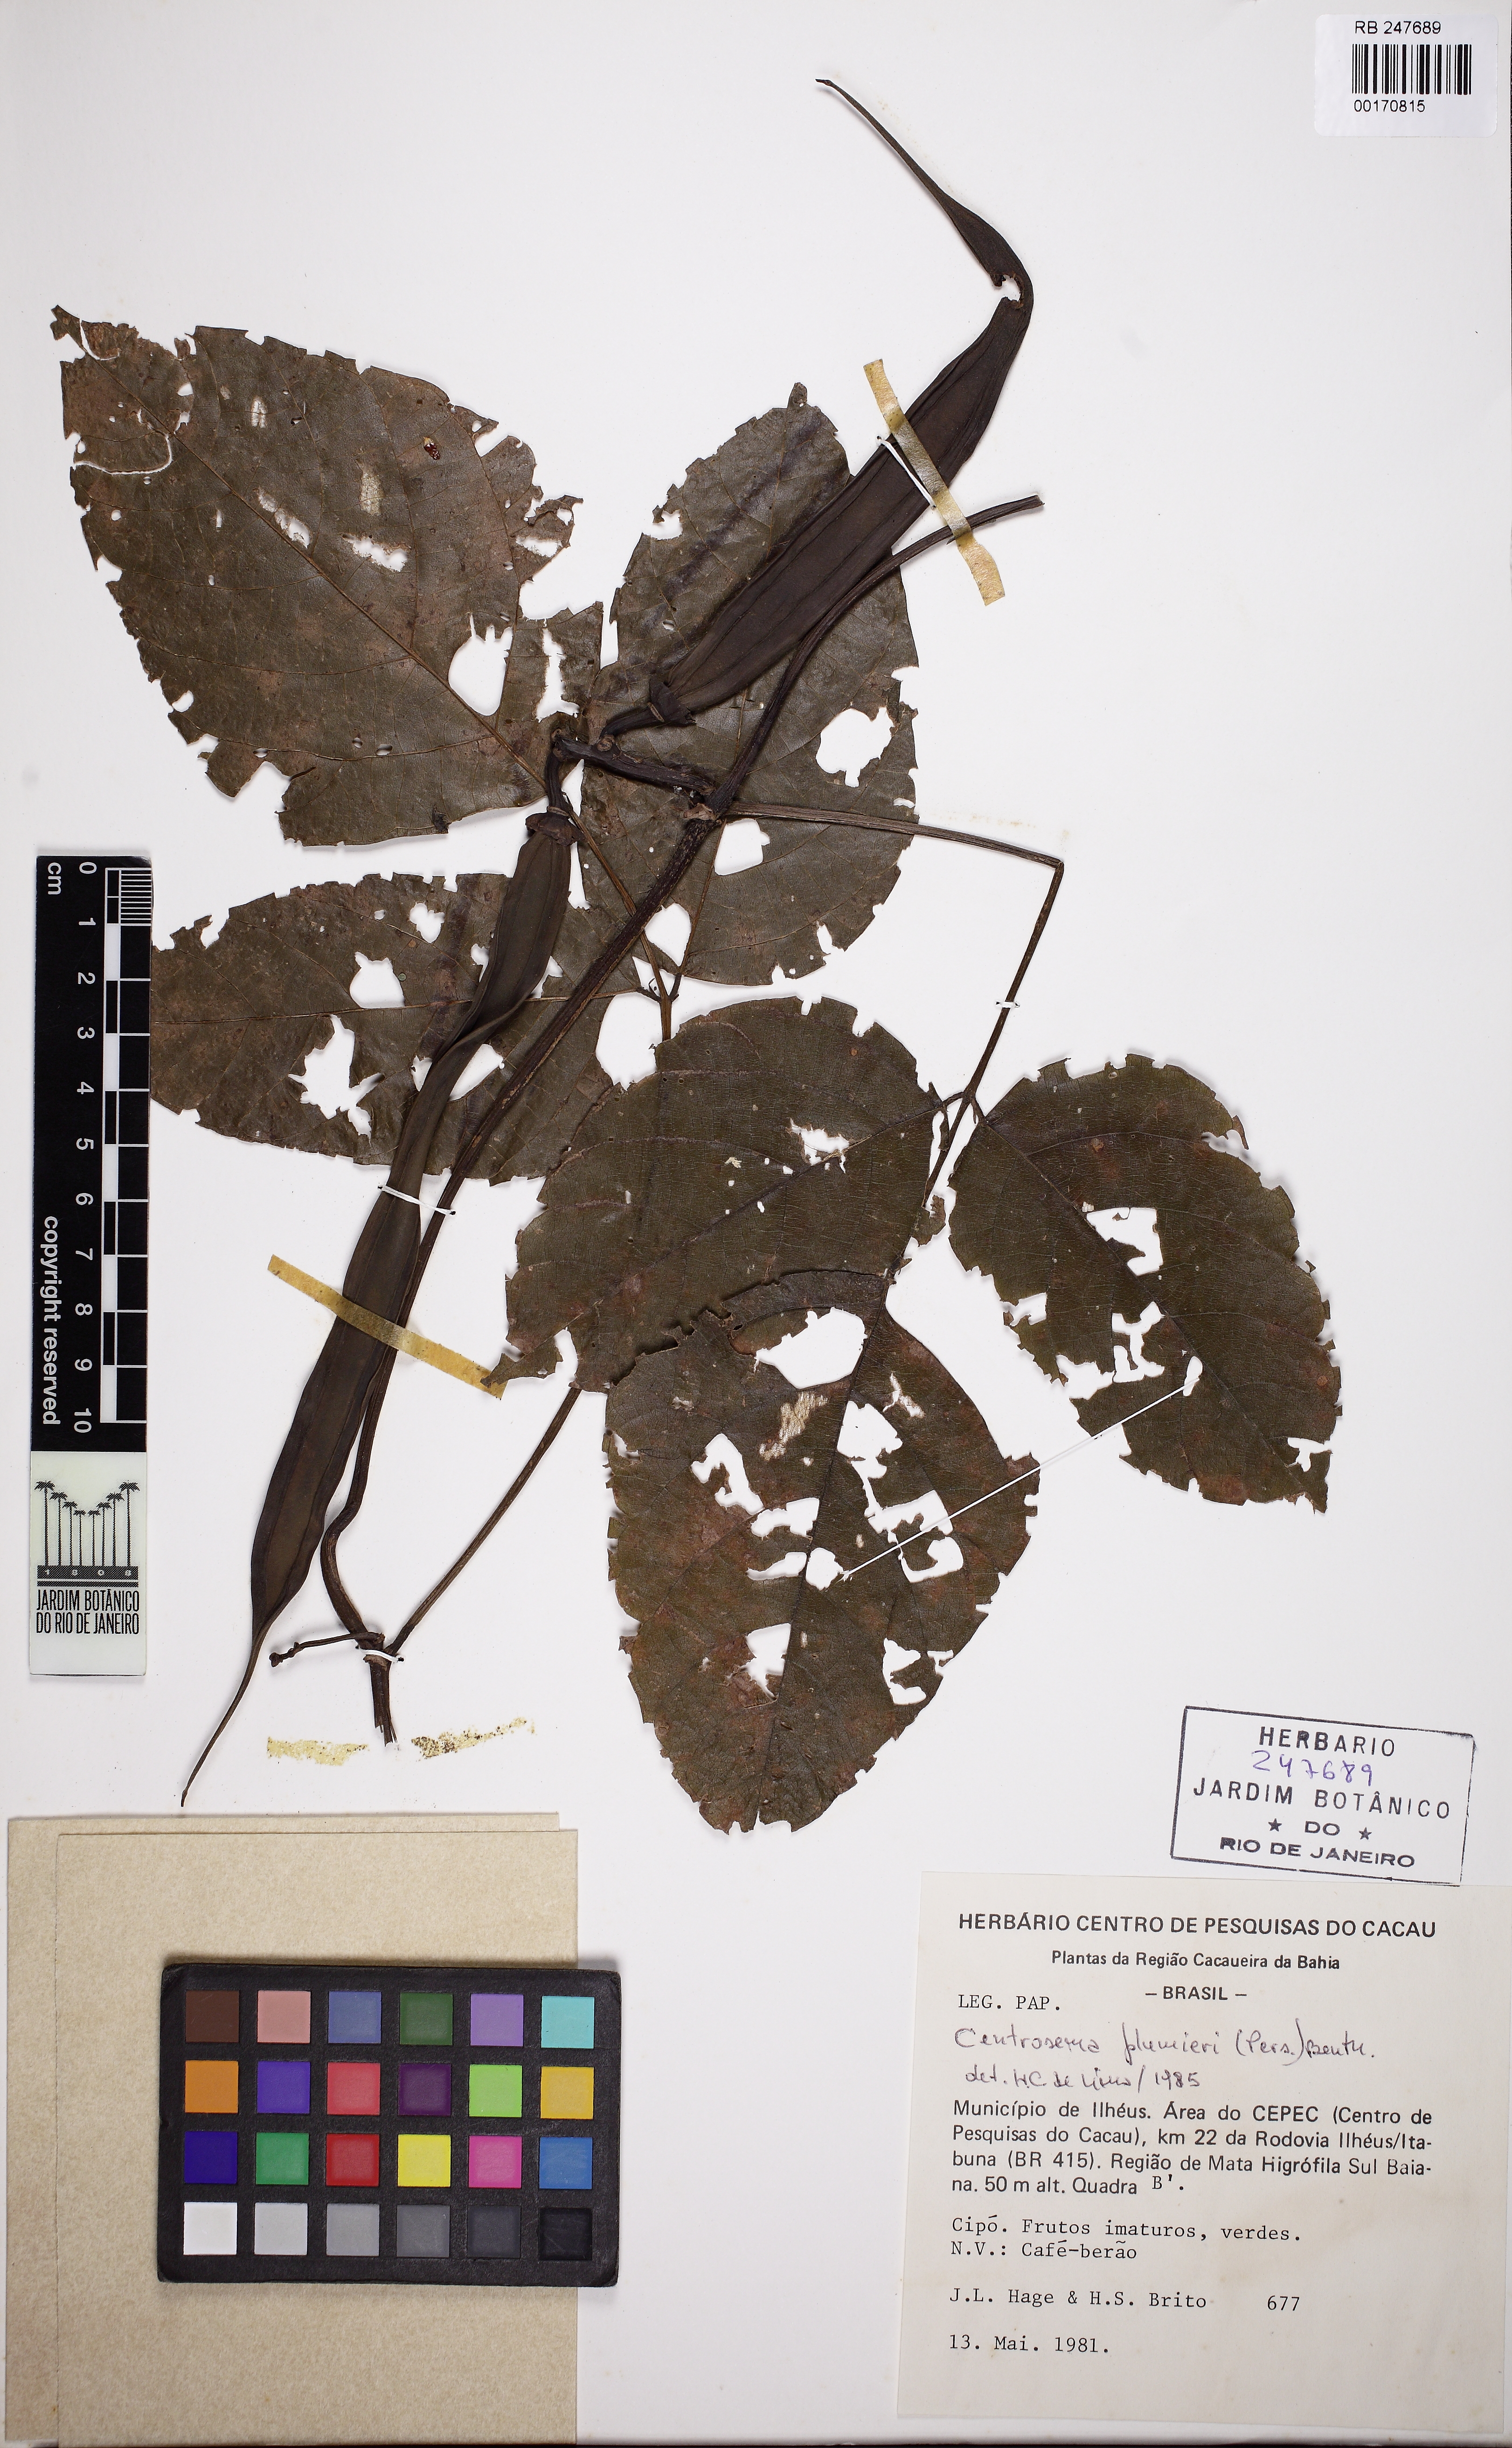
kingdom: Plantae
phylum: Tracheophyta
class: Magnoliopsida
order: Fabales
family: Fabaceae
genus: Centrosema
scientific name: Centrosema plumieri
